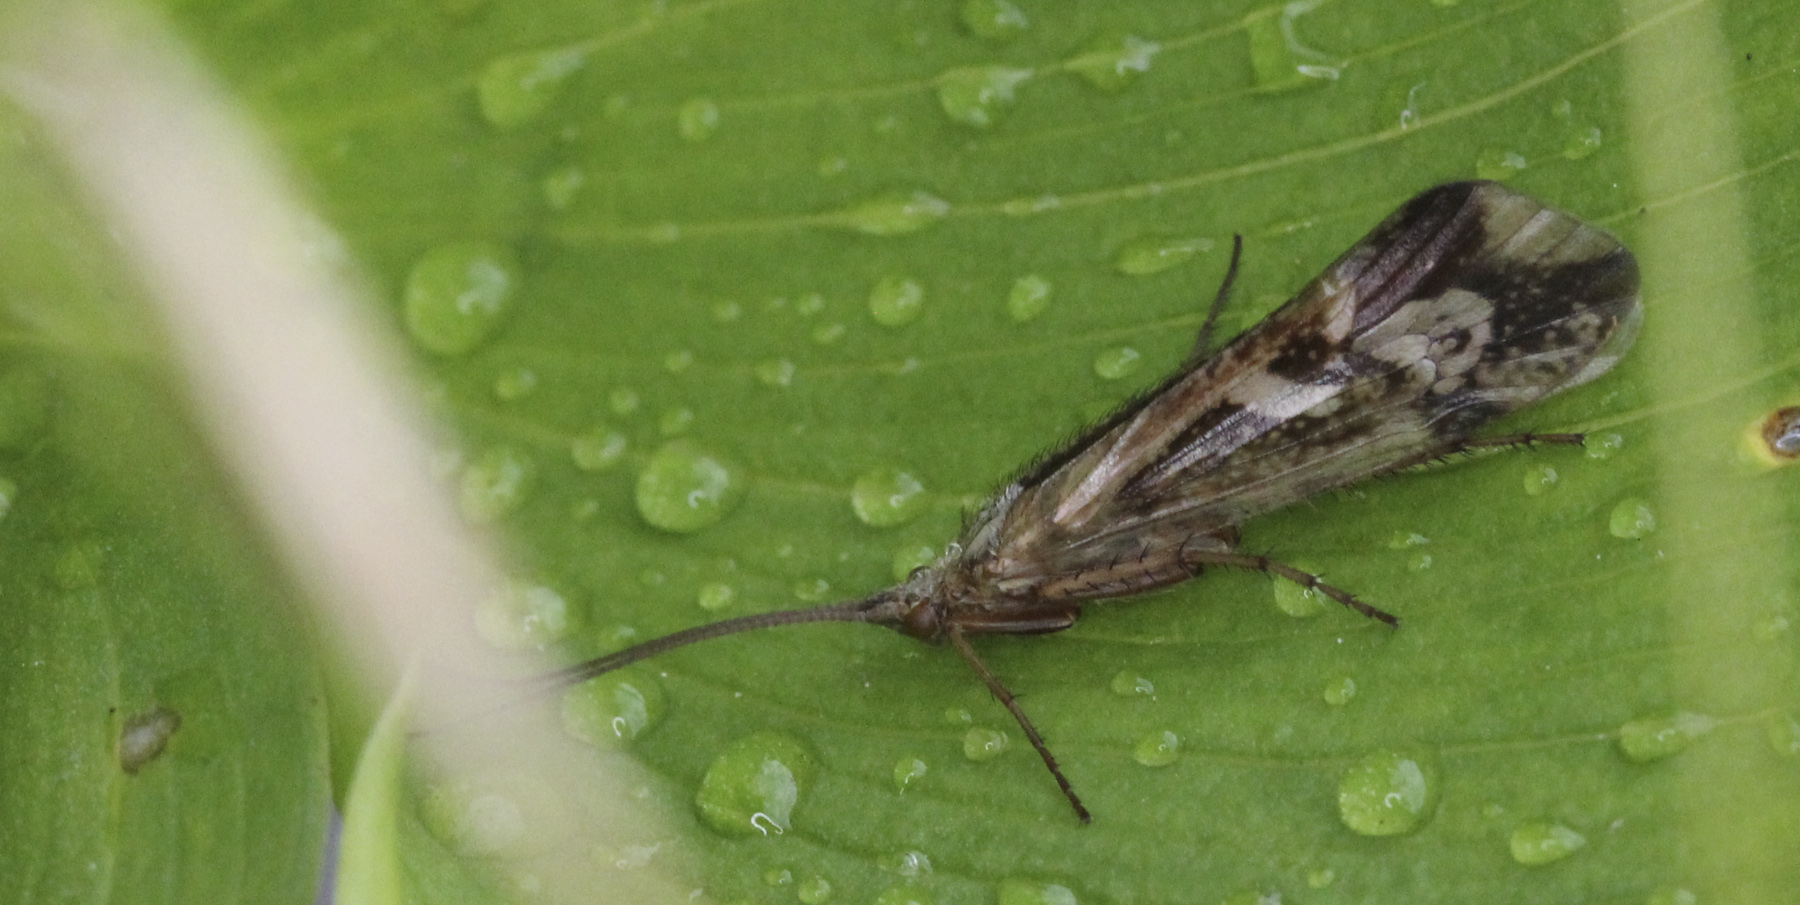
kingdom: Animalia
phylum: Arthropoda
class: Insecta
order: Trichoptera
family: Limnephilidae
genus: Limnephilus
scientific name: Limnephilus borealis
